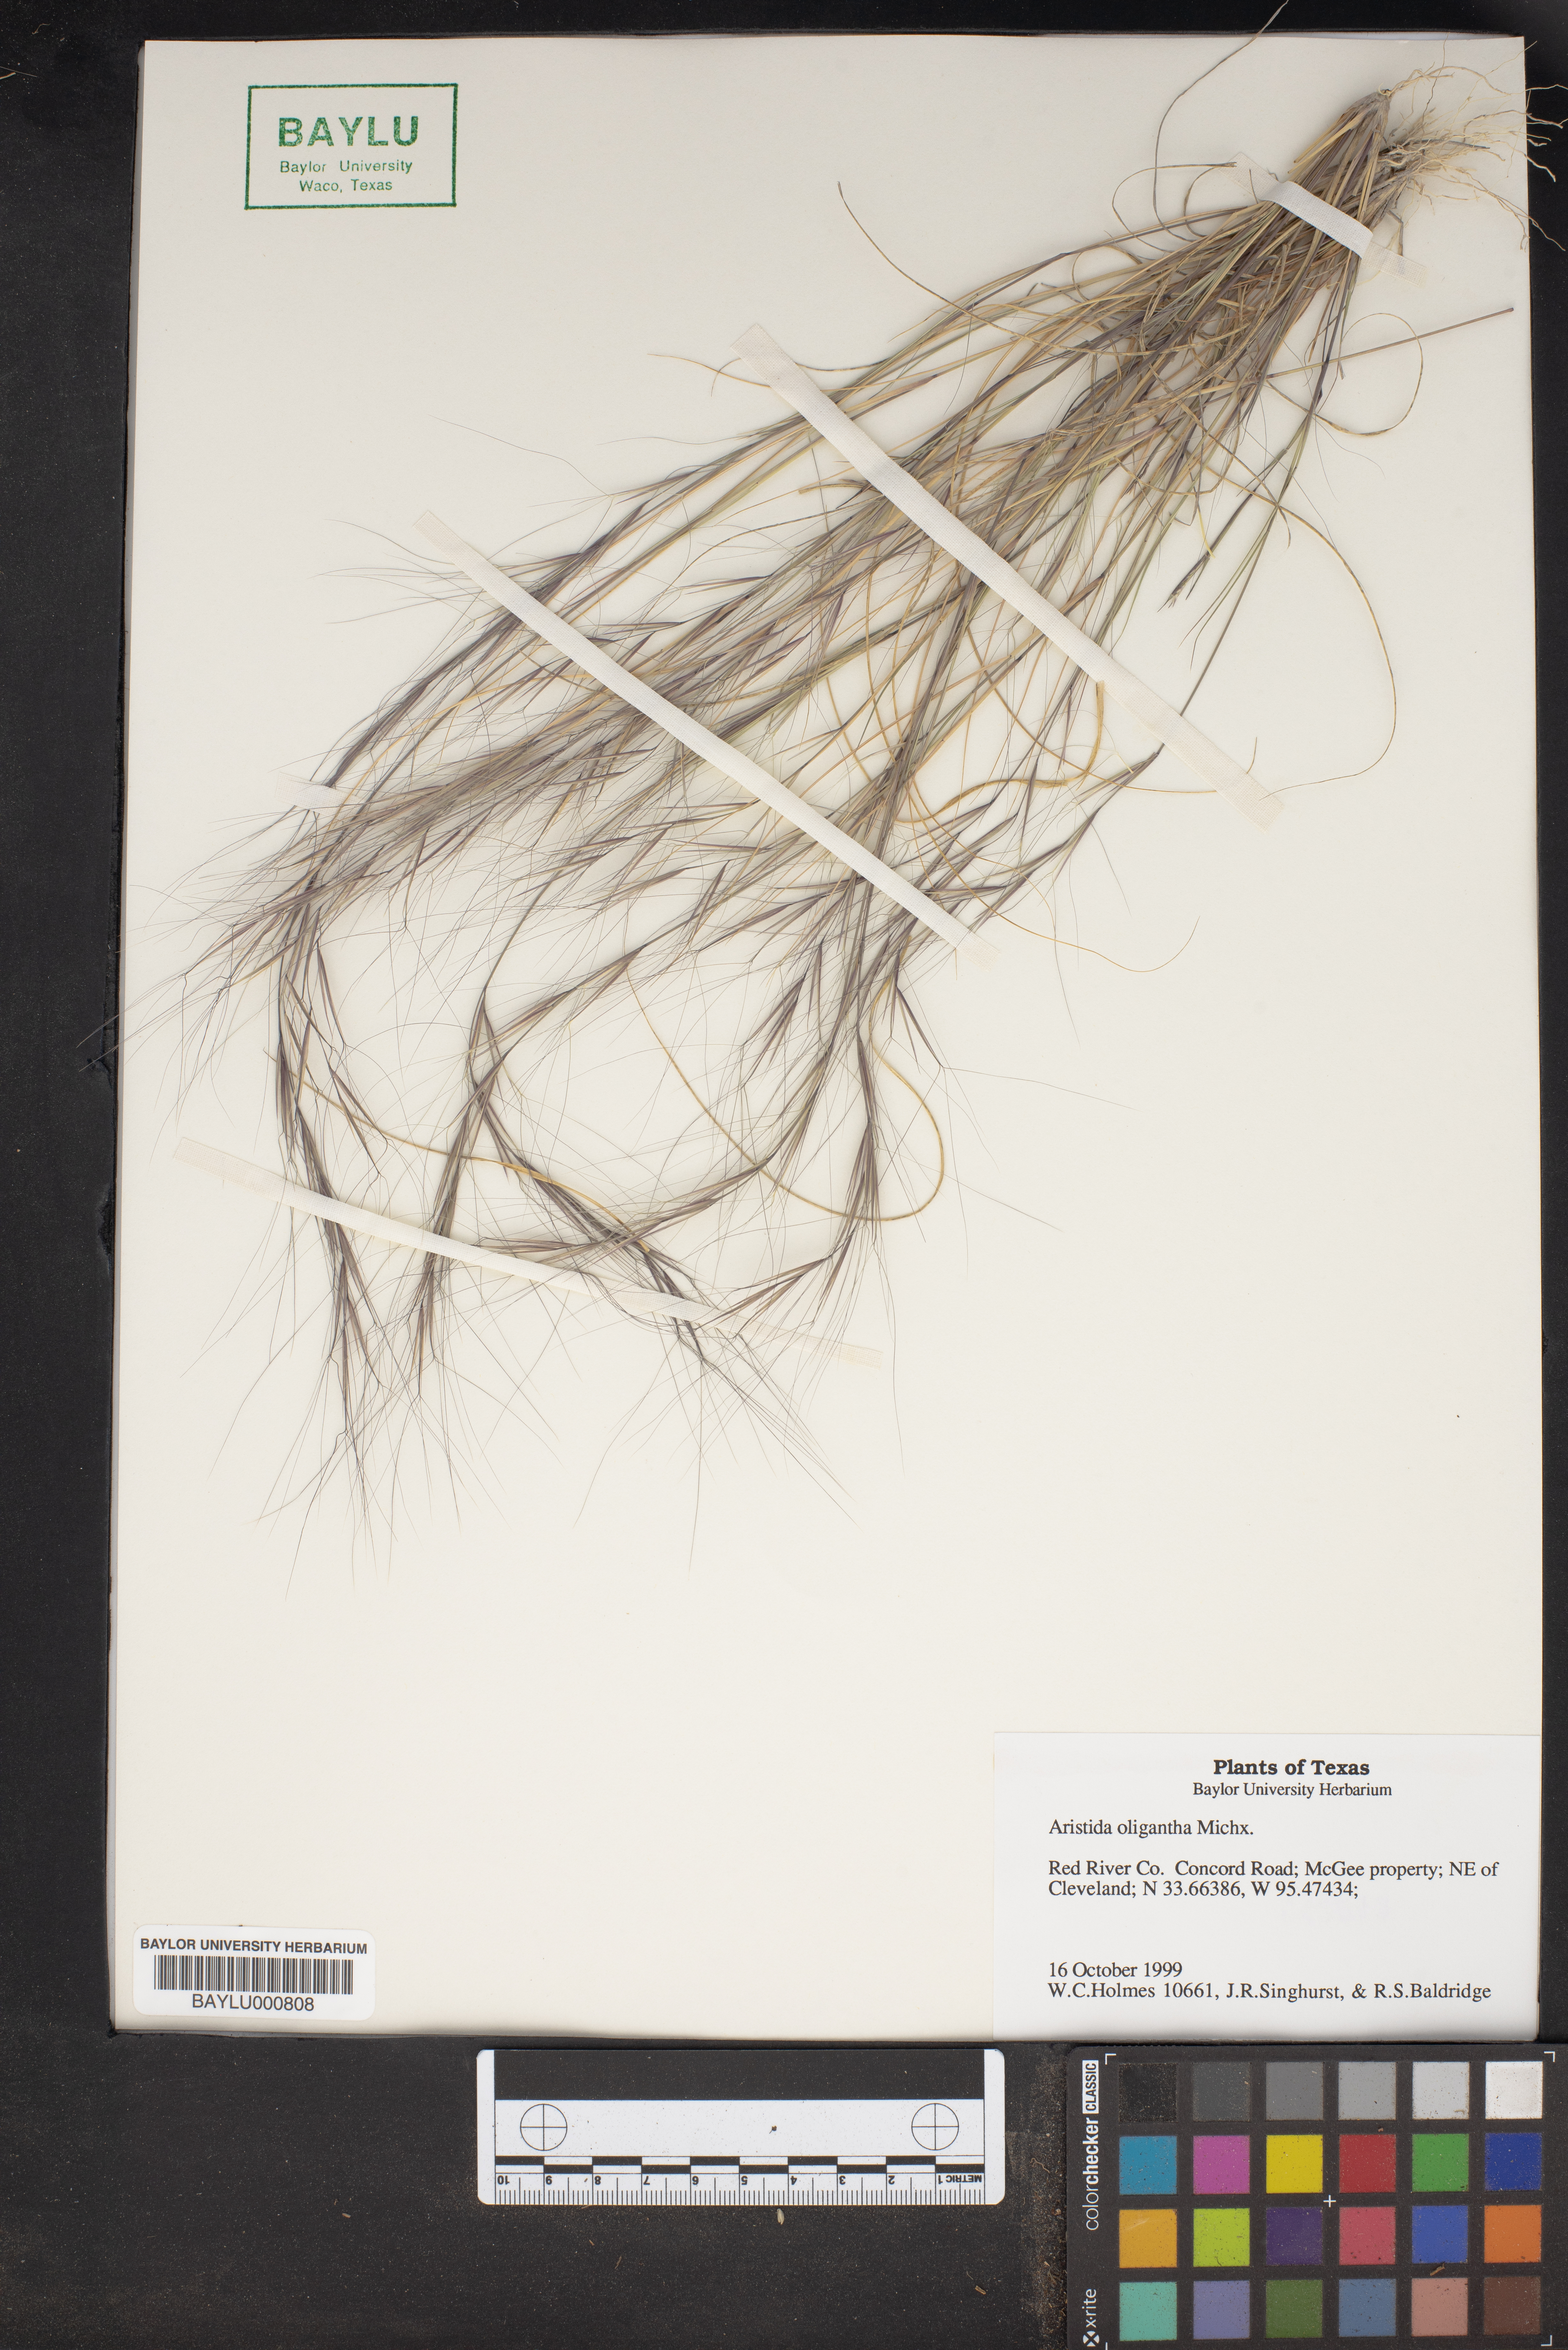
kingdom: Plantae
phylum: Tracheophyta
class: Liliopsida
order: Poales
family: Poaceae
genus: Aristida
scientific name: Aristida oligantha
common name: Few-flowered aristida
